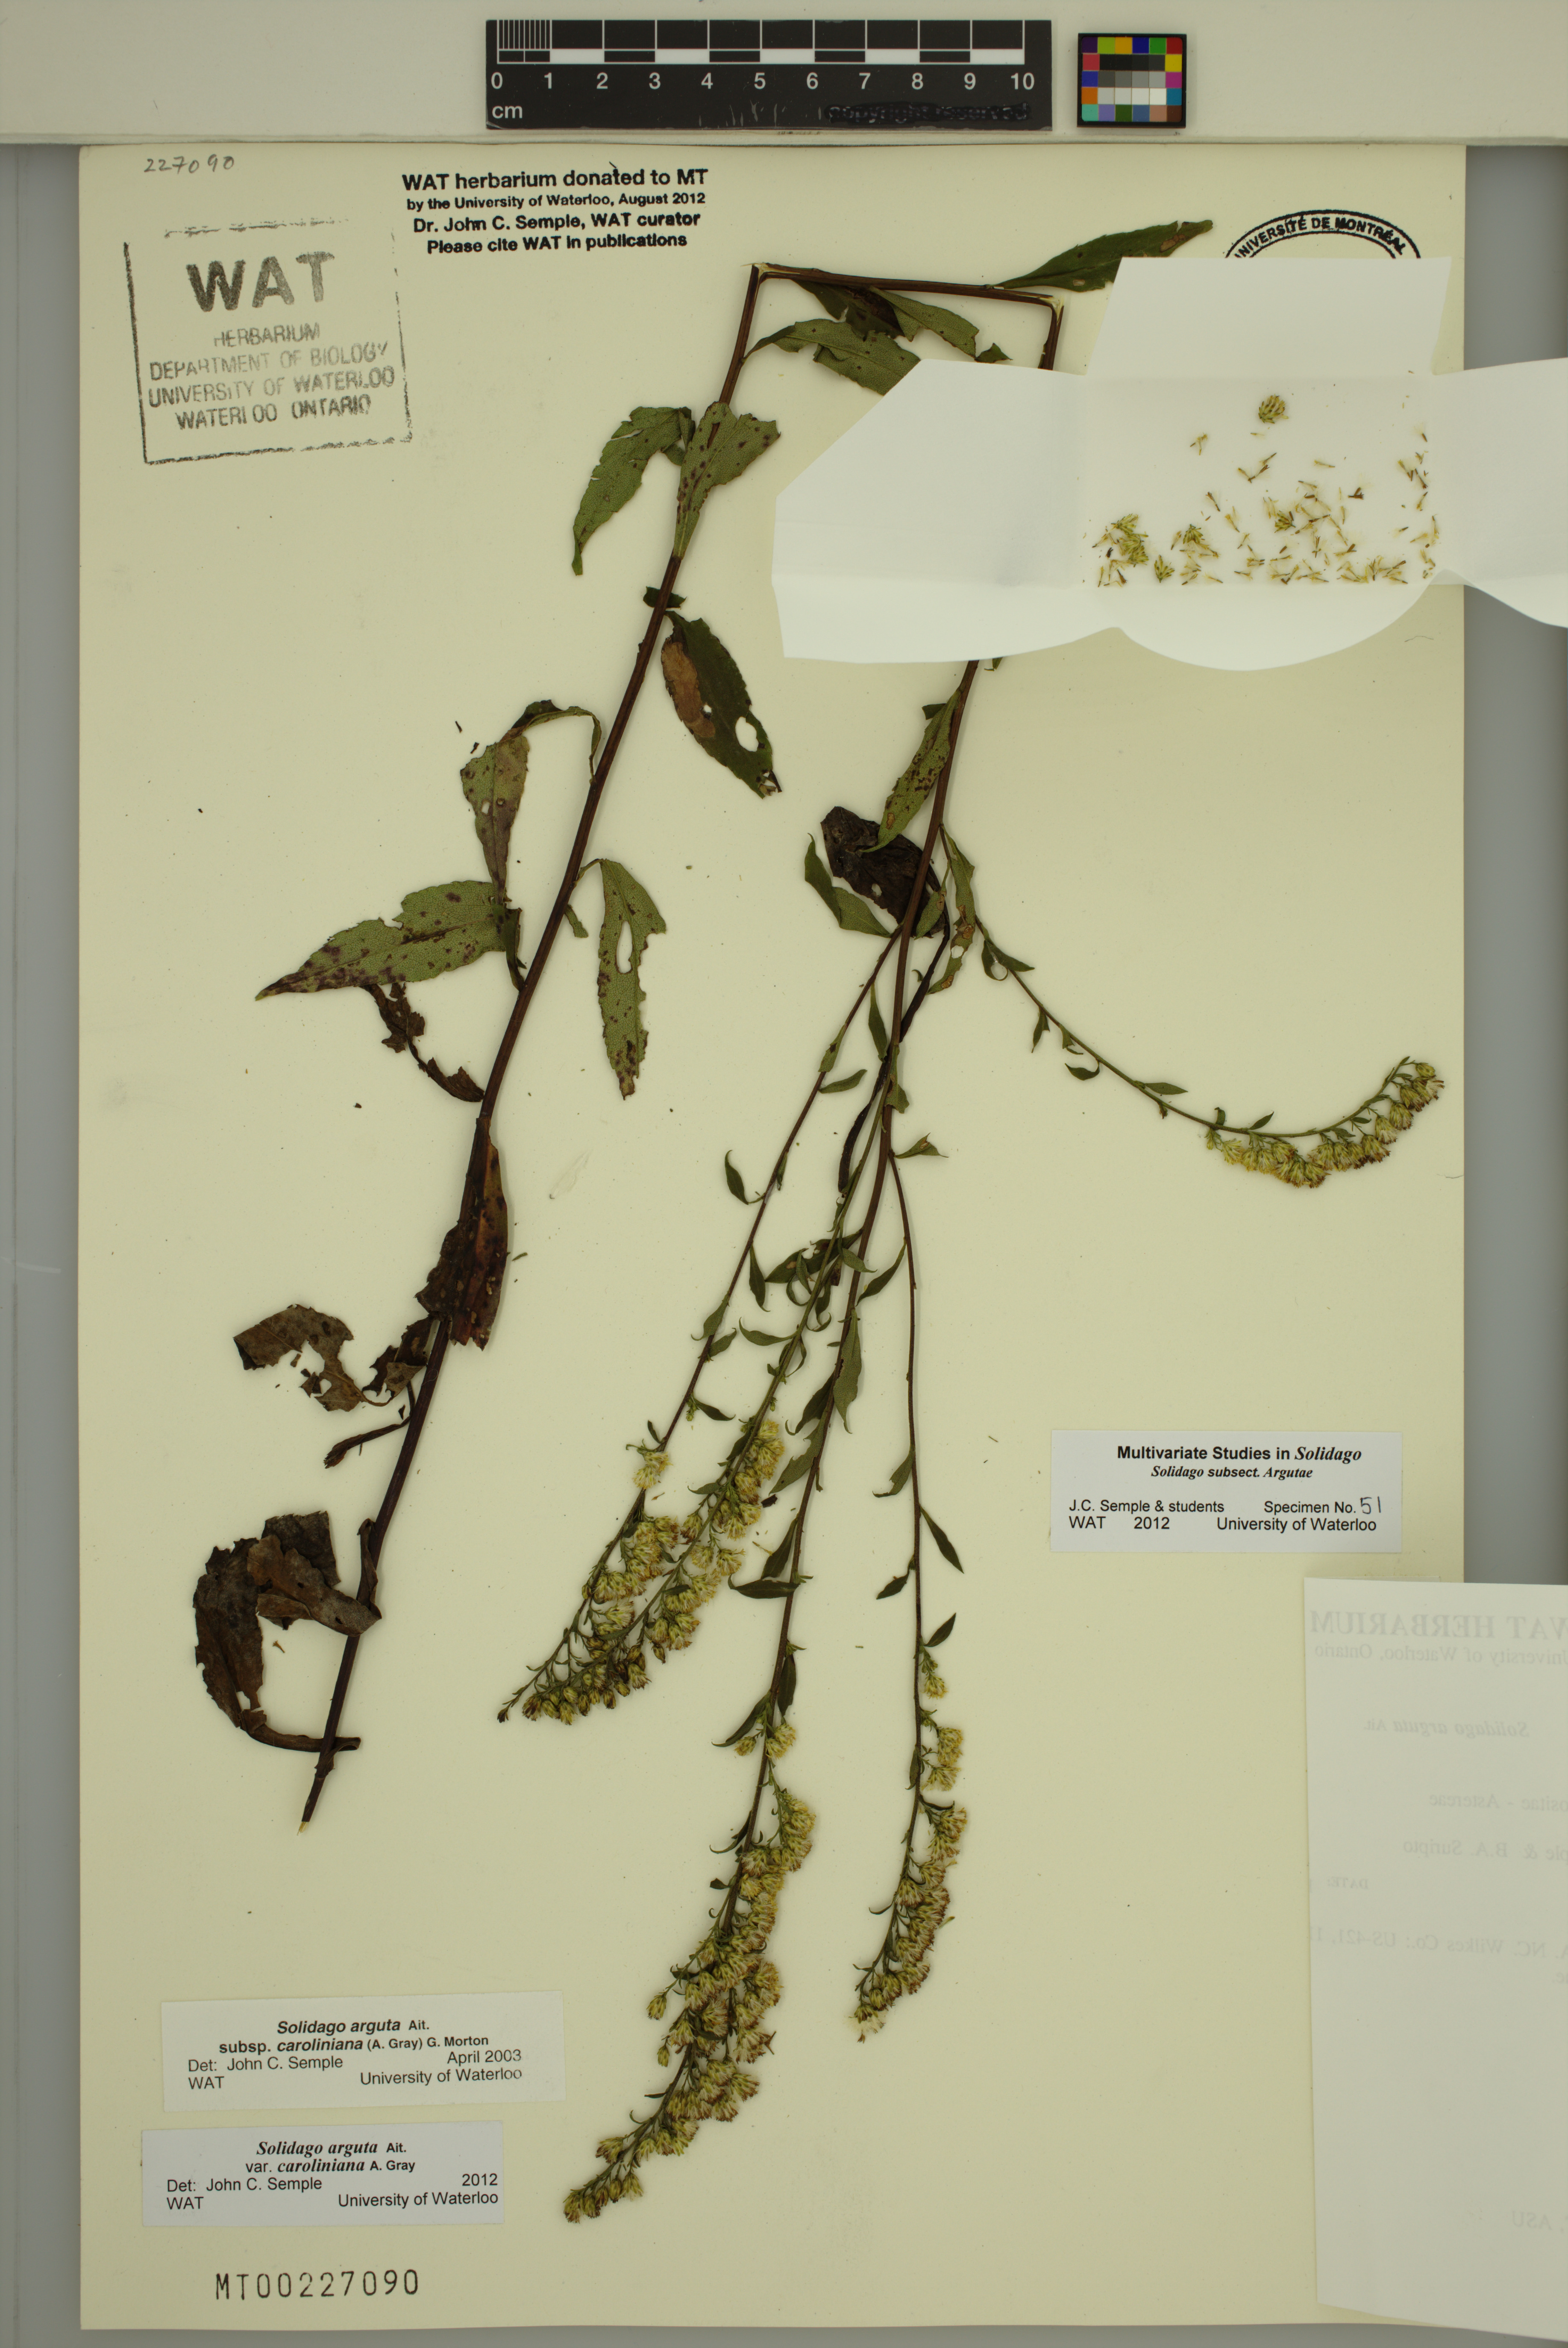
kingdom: Plantae
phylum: Tracheophyta
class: Magnoliopsida
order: Asterales
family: Asteraceae
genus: Solidago
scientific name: Solidago vaseyi
